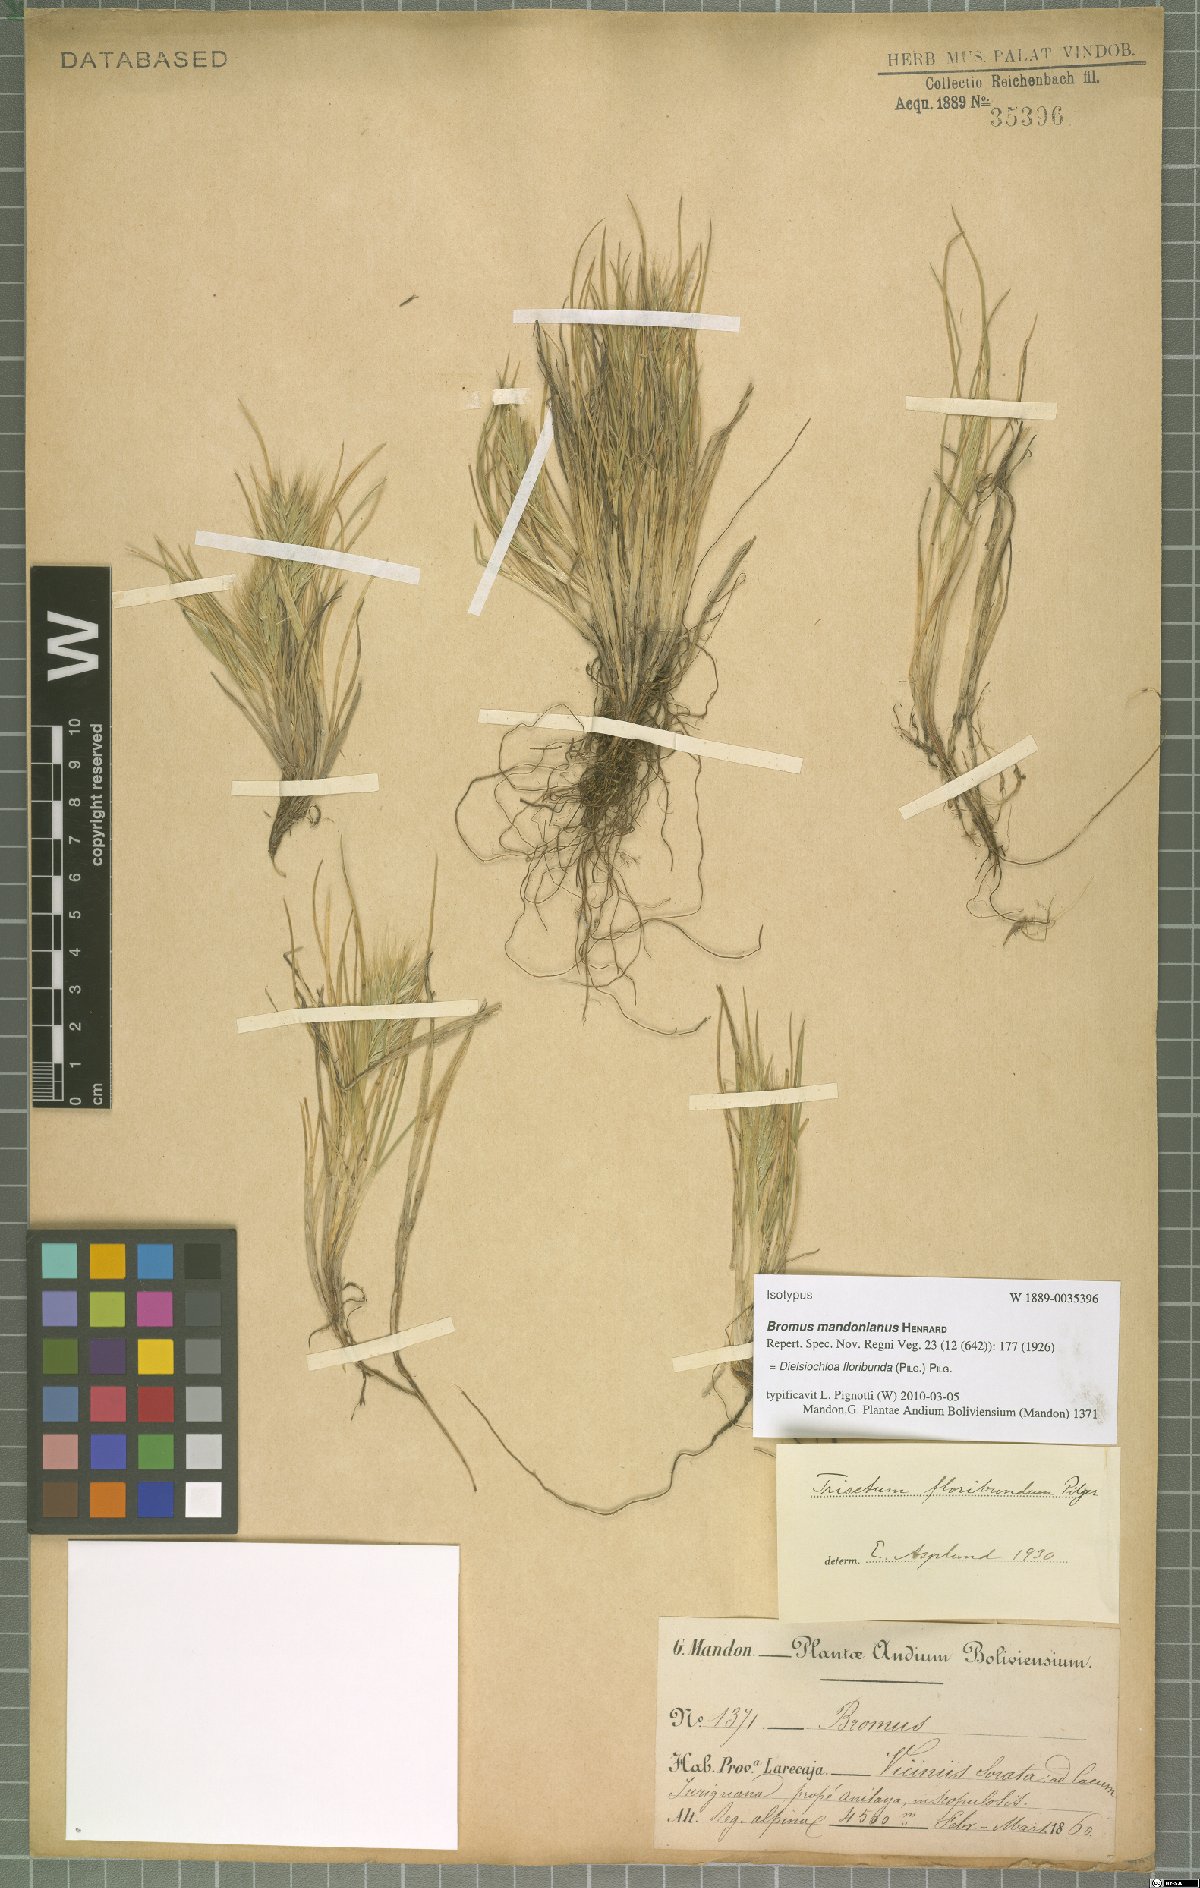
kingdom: Plantae
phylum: Tracheophyta
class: Liliopsida
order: Poales
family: Poaceae
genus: Festuca
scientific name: Festuca floribunda
